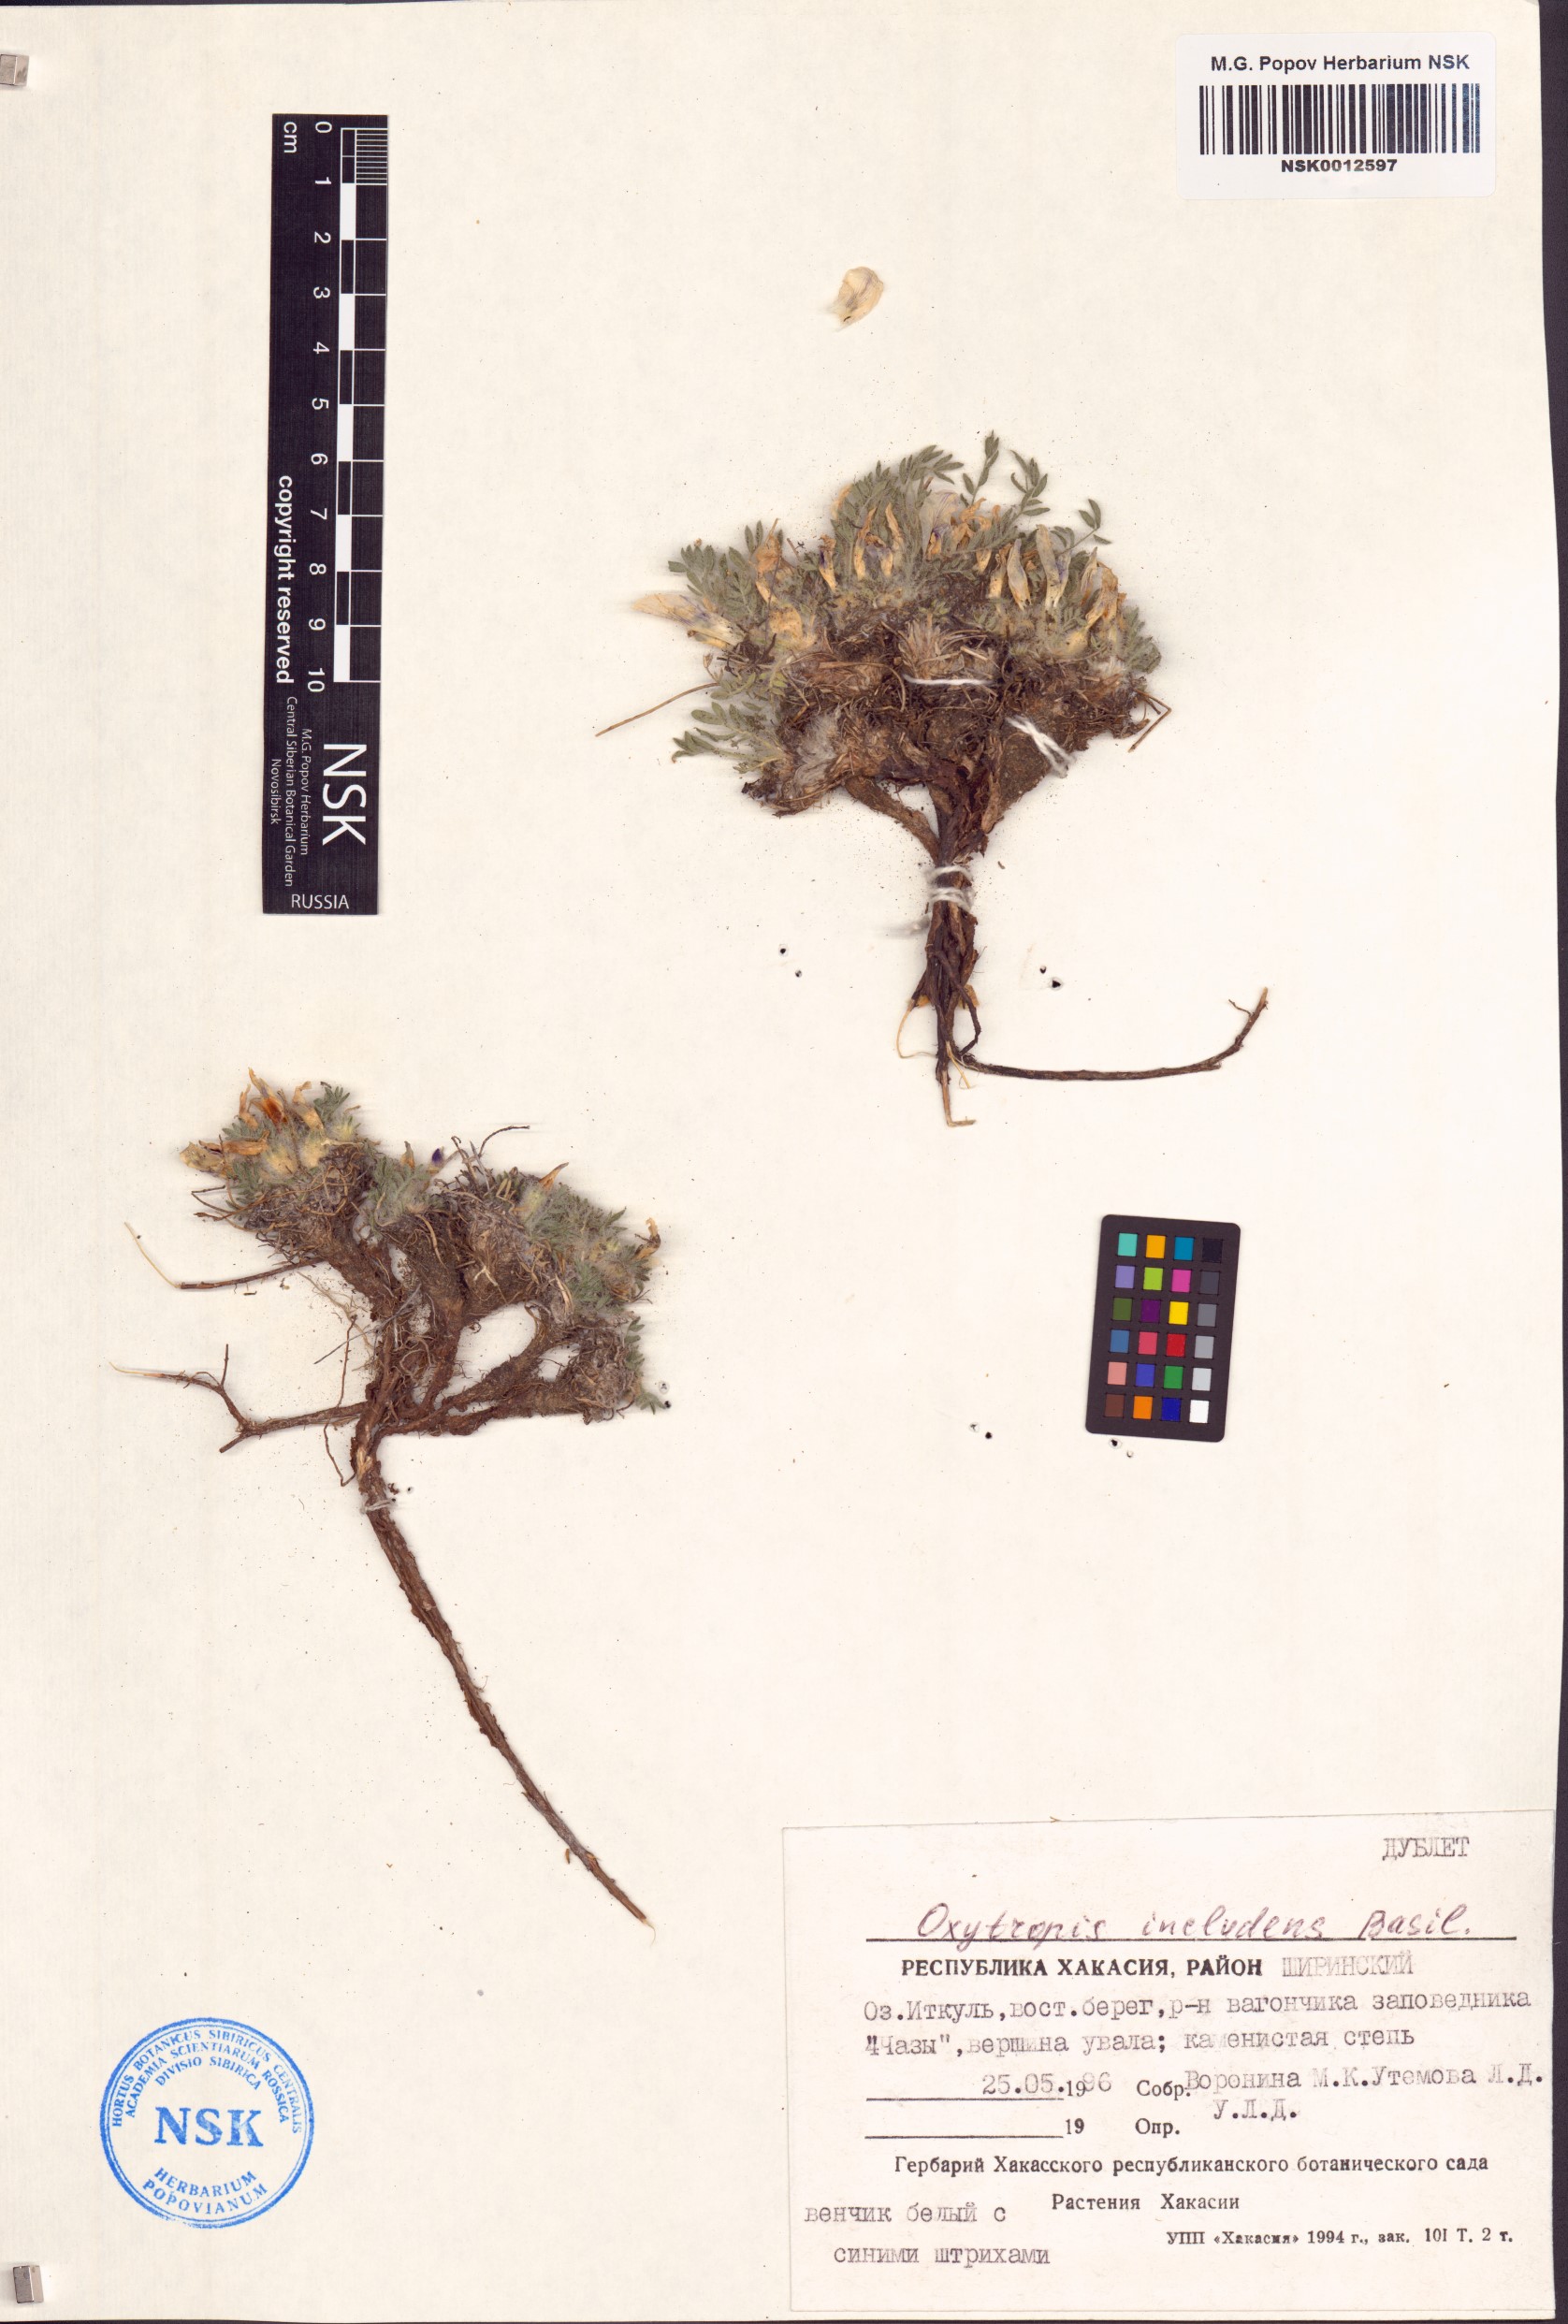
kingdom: Plantae
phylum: Tracheophyta
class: Magnoliopsida
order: Fabales
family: Fabaceae
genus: Oxytropis
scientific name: Oxytropis includens
